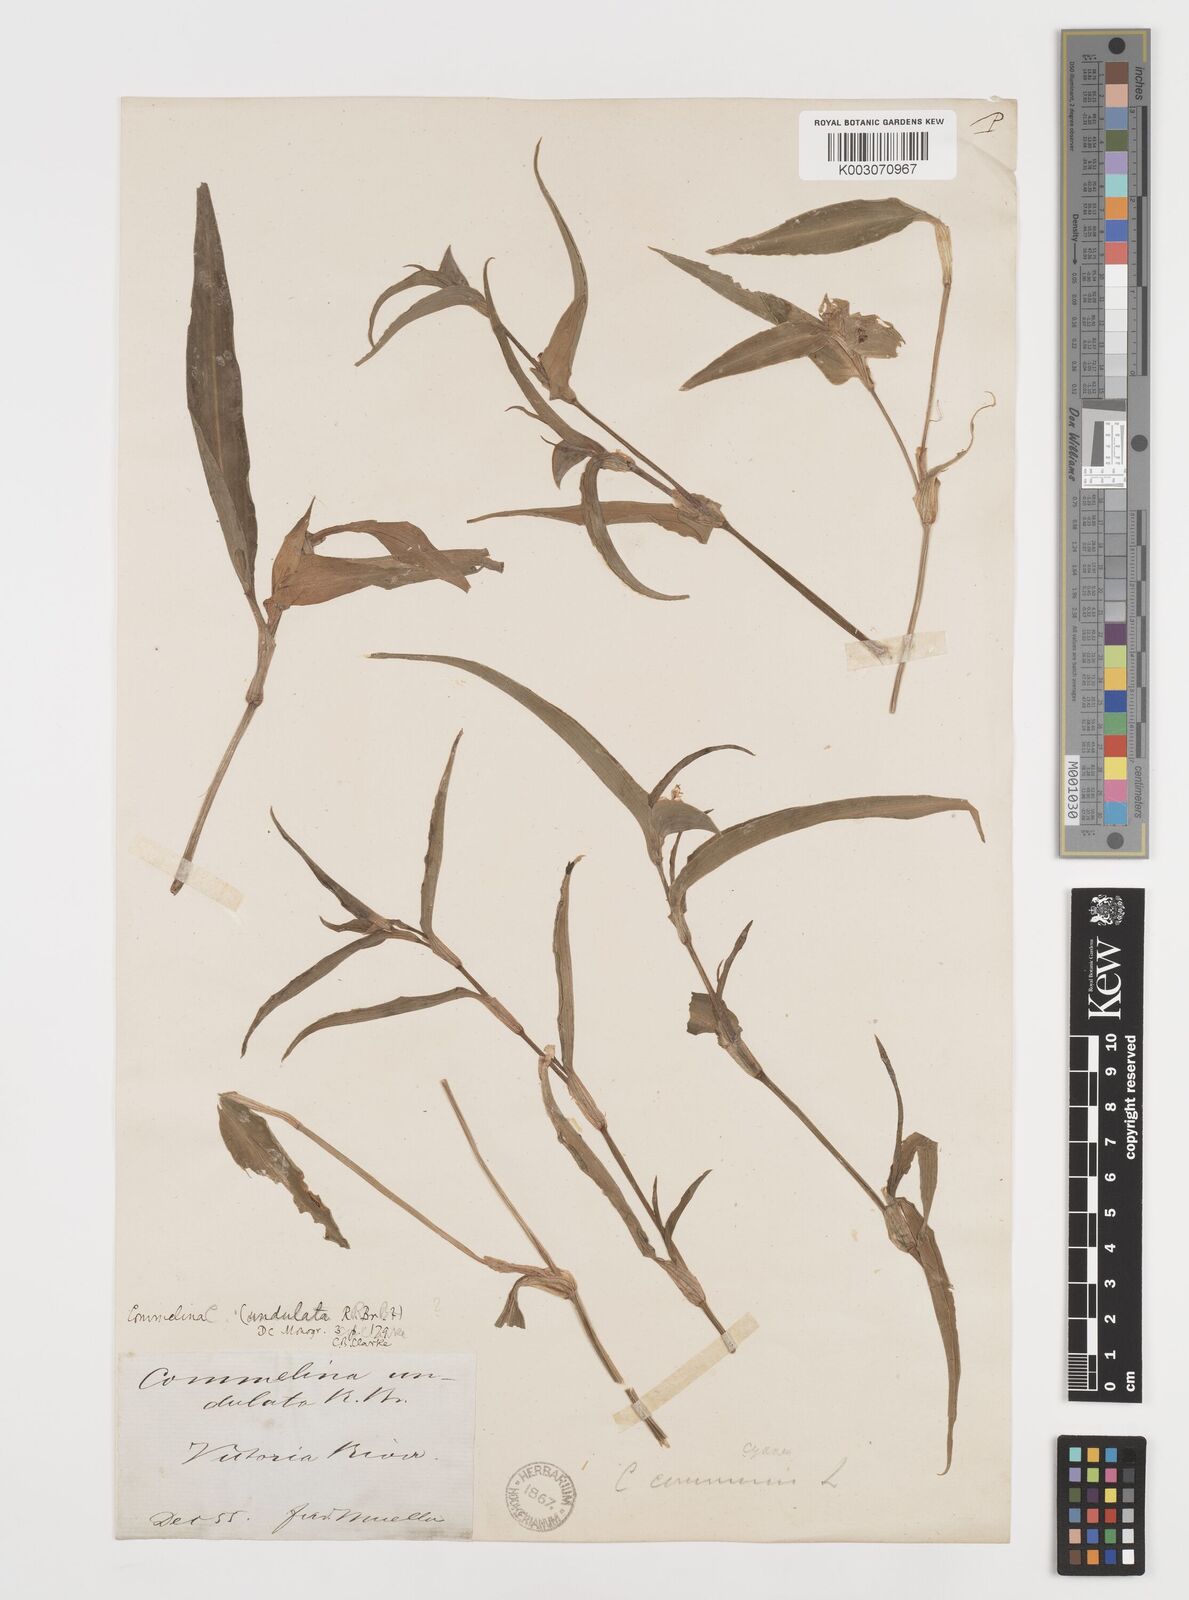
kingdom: Plantae
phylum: Tracheophyta
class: Liliopsida
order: Commelinales
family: Commelinaceae
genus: Commelina
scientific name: Commelina undulata
